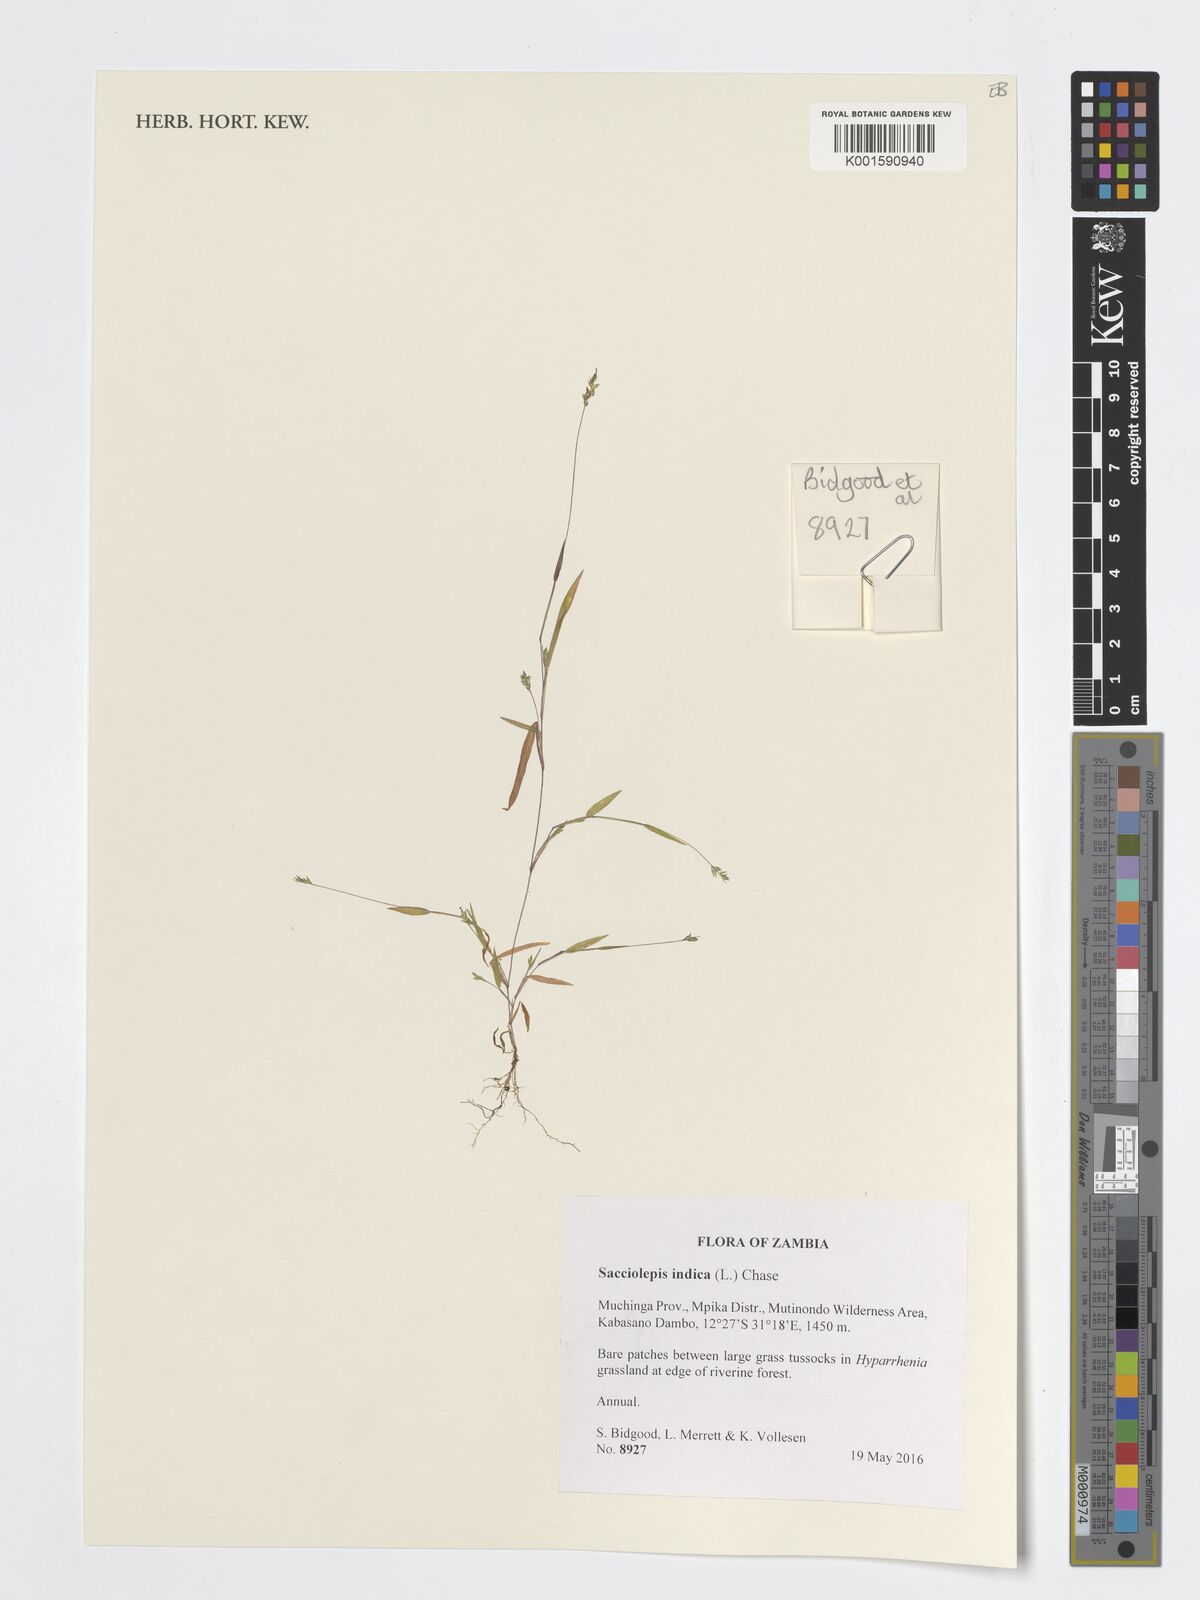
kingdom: Plantae
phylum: Tracheophyta
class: Liliopsida
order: Poales
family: Poaceae
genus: Sacciolepis
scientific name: Sacciolepis indica
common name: Glenwoodgrass
